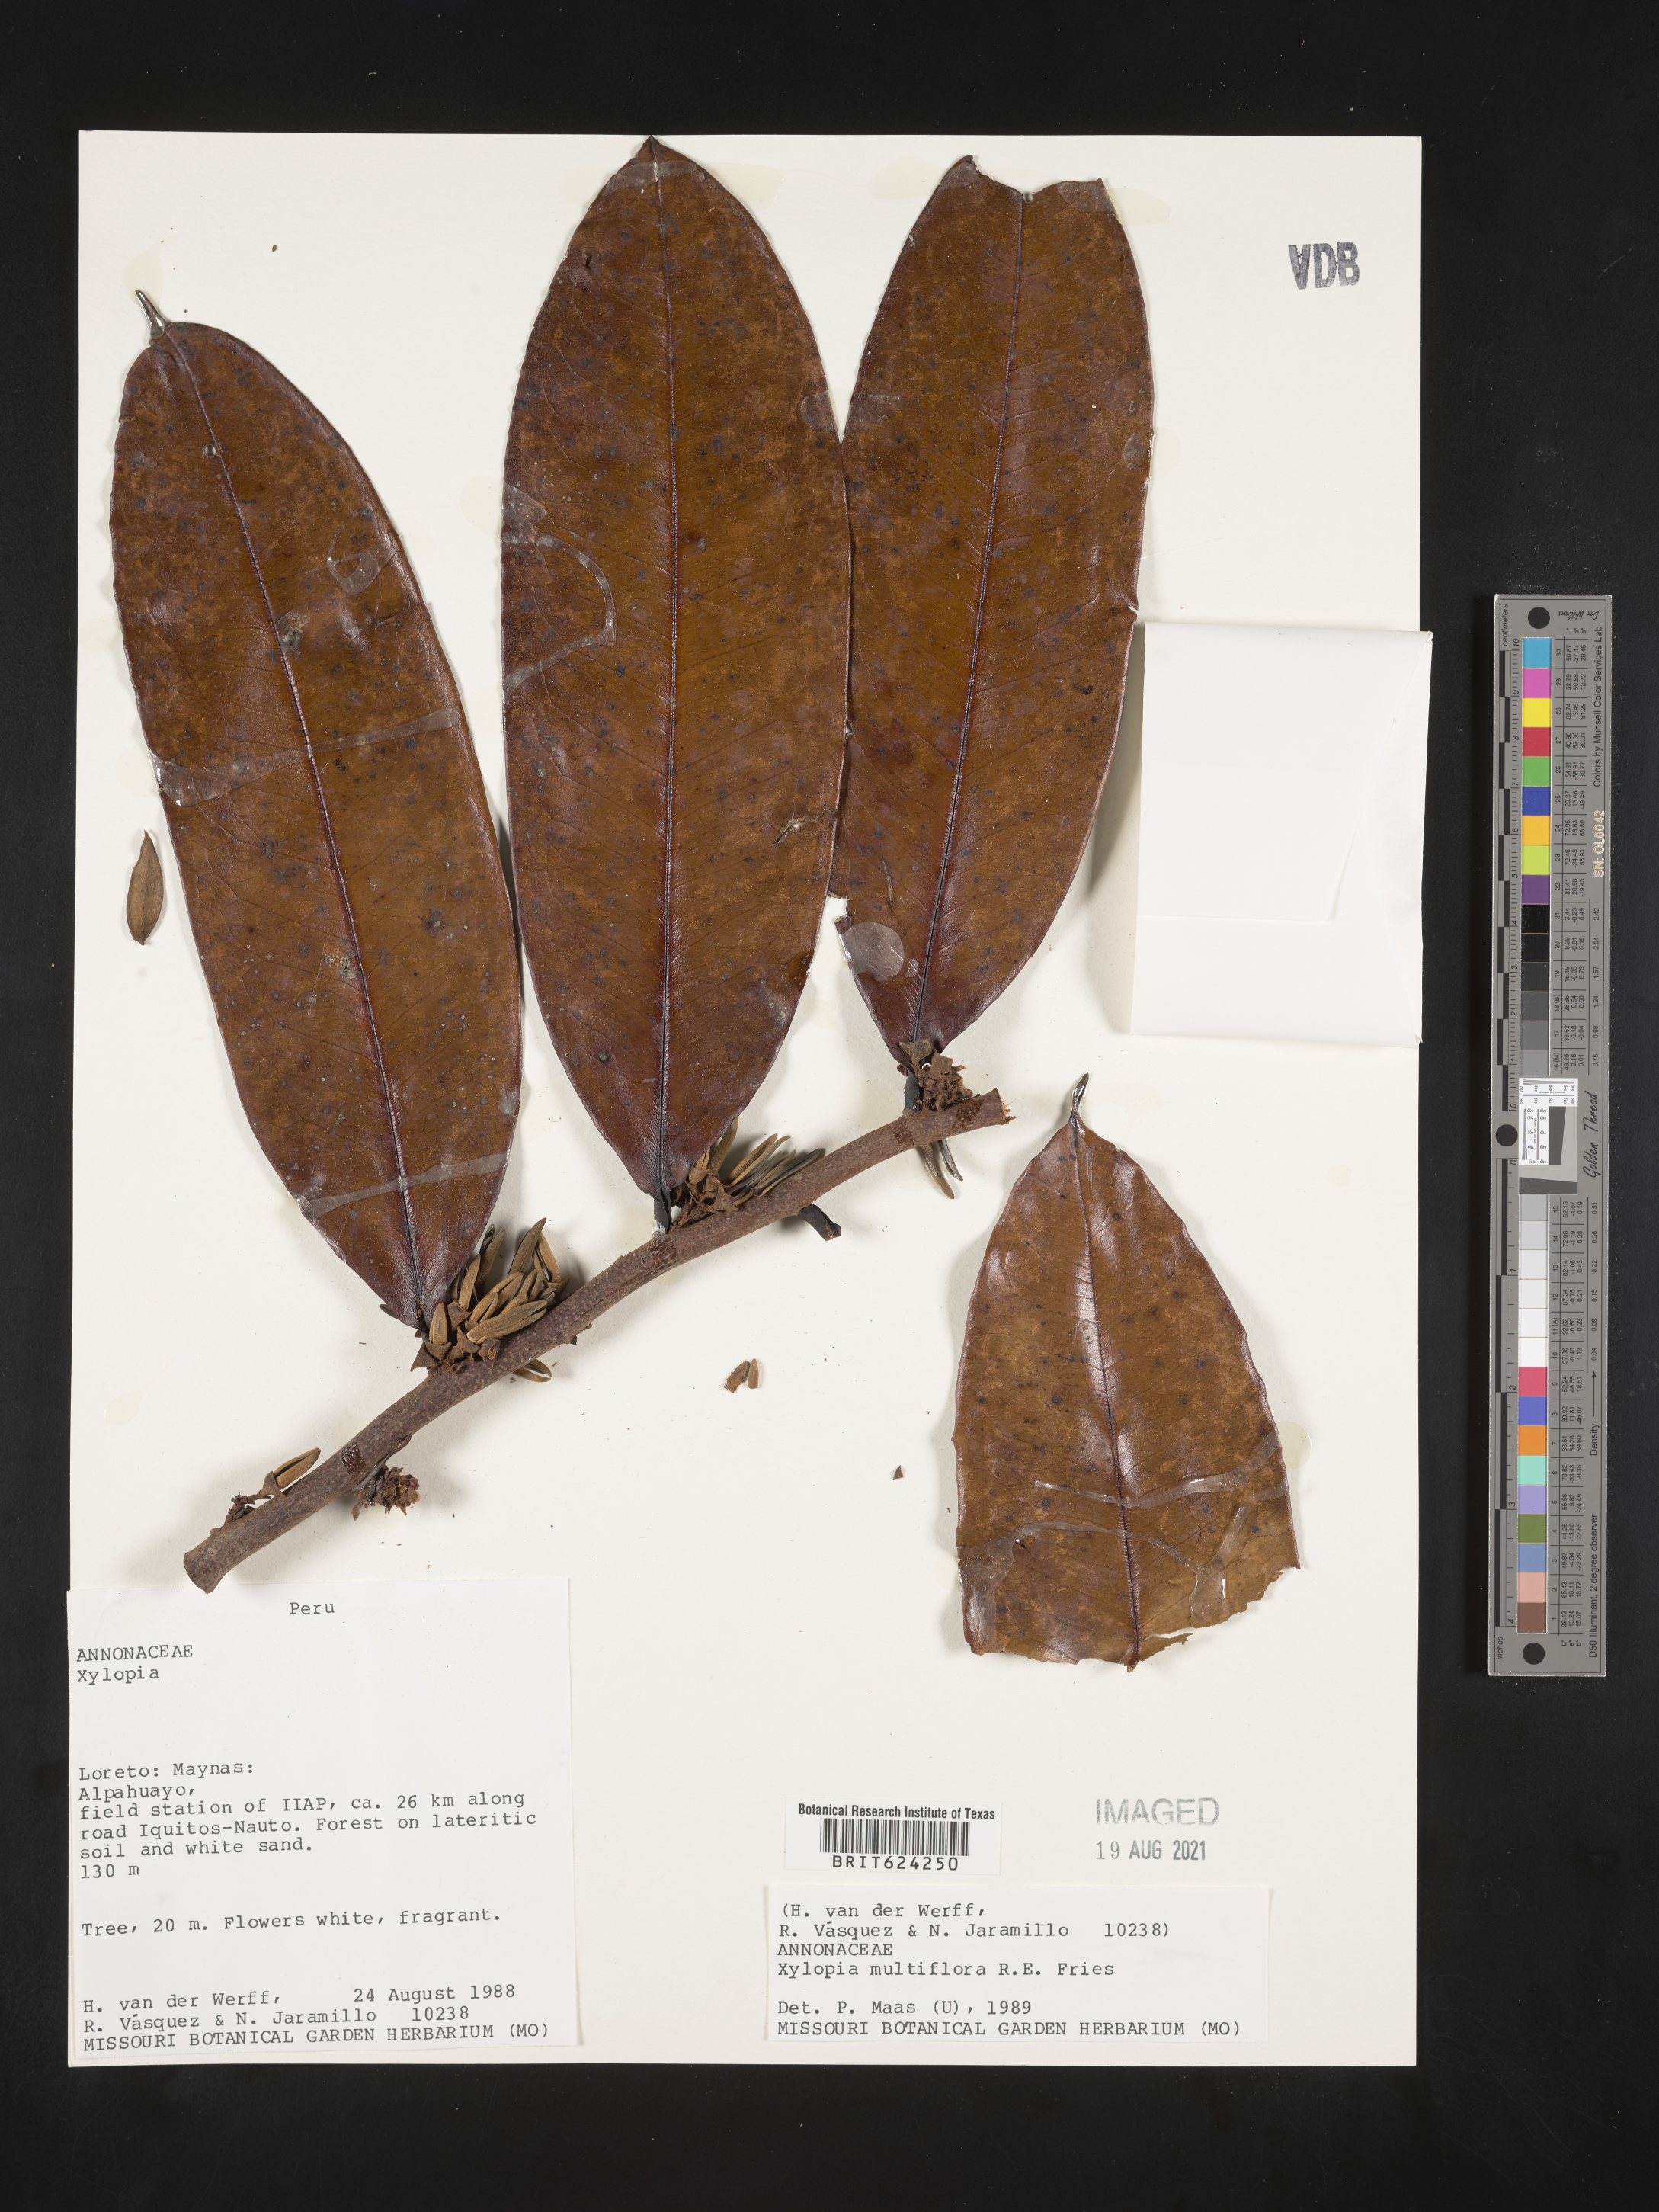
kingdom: Plantae
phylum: Tracheophyta
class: Magnoliopsida
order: Magnoliales
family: Annonaceae
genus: Xylopia
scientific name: Xylopia multiflora
